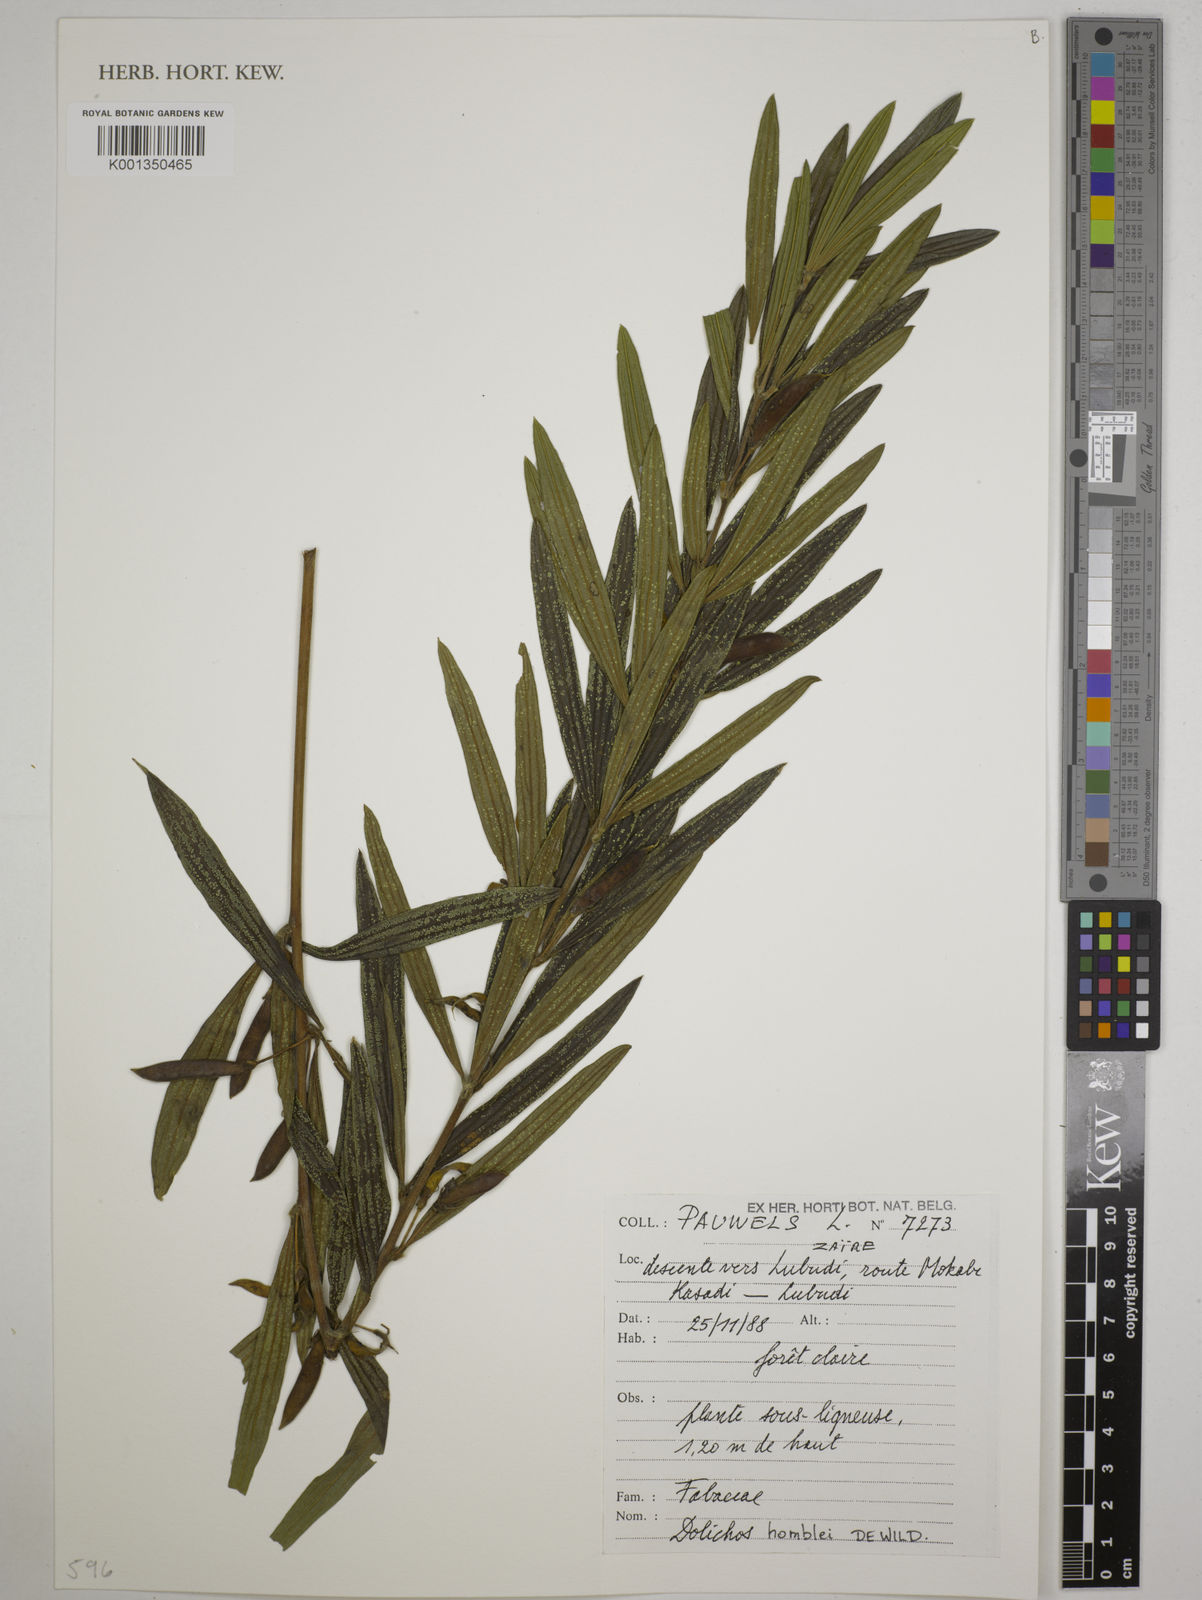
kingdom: Plantae
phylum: Tracheophyta
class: Magnoliopsida
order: Fabales
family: Fabaceae
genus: Dolichos
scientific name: Dolichos homblei
